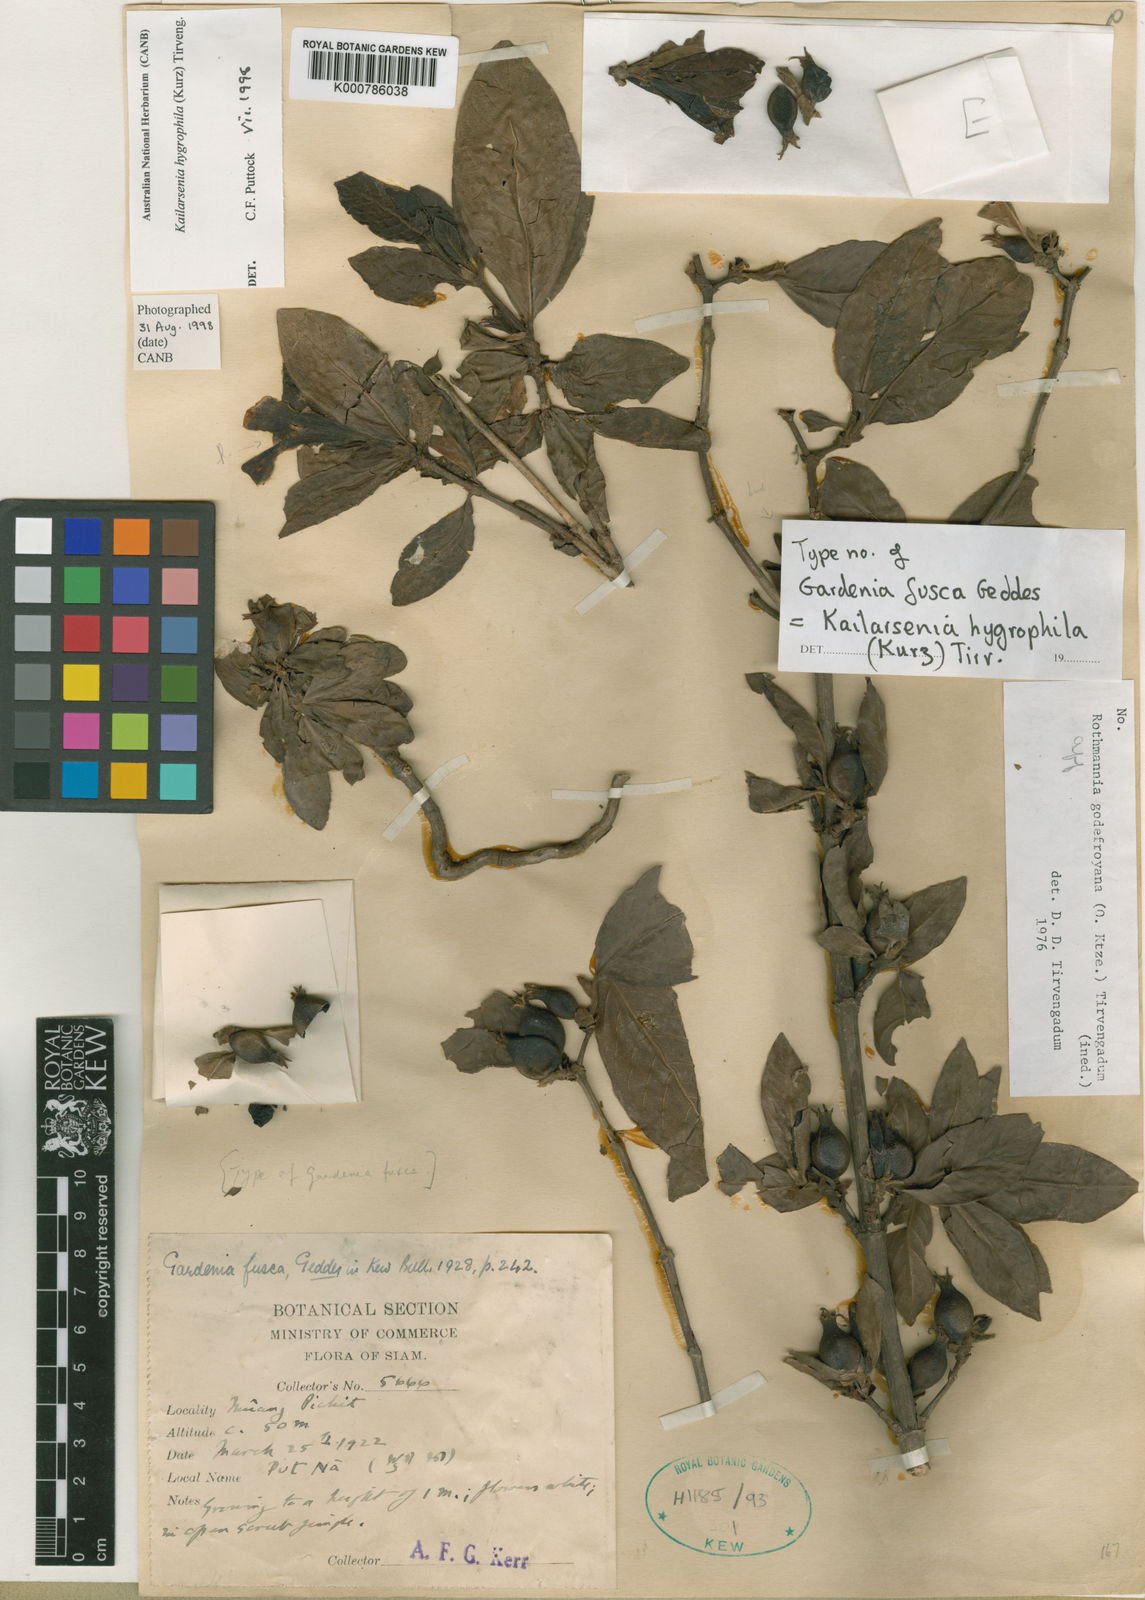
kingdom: Plantae
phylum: Tracheophyta
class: Magnoliopsida
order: Gentianales
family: Rubiaceae
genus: Kailarsenia
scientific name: Kailarsenia hygrophila
